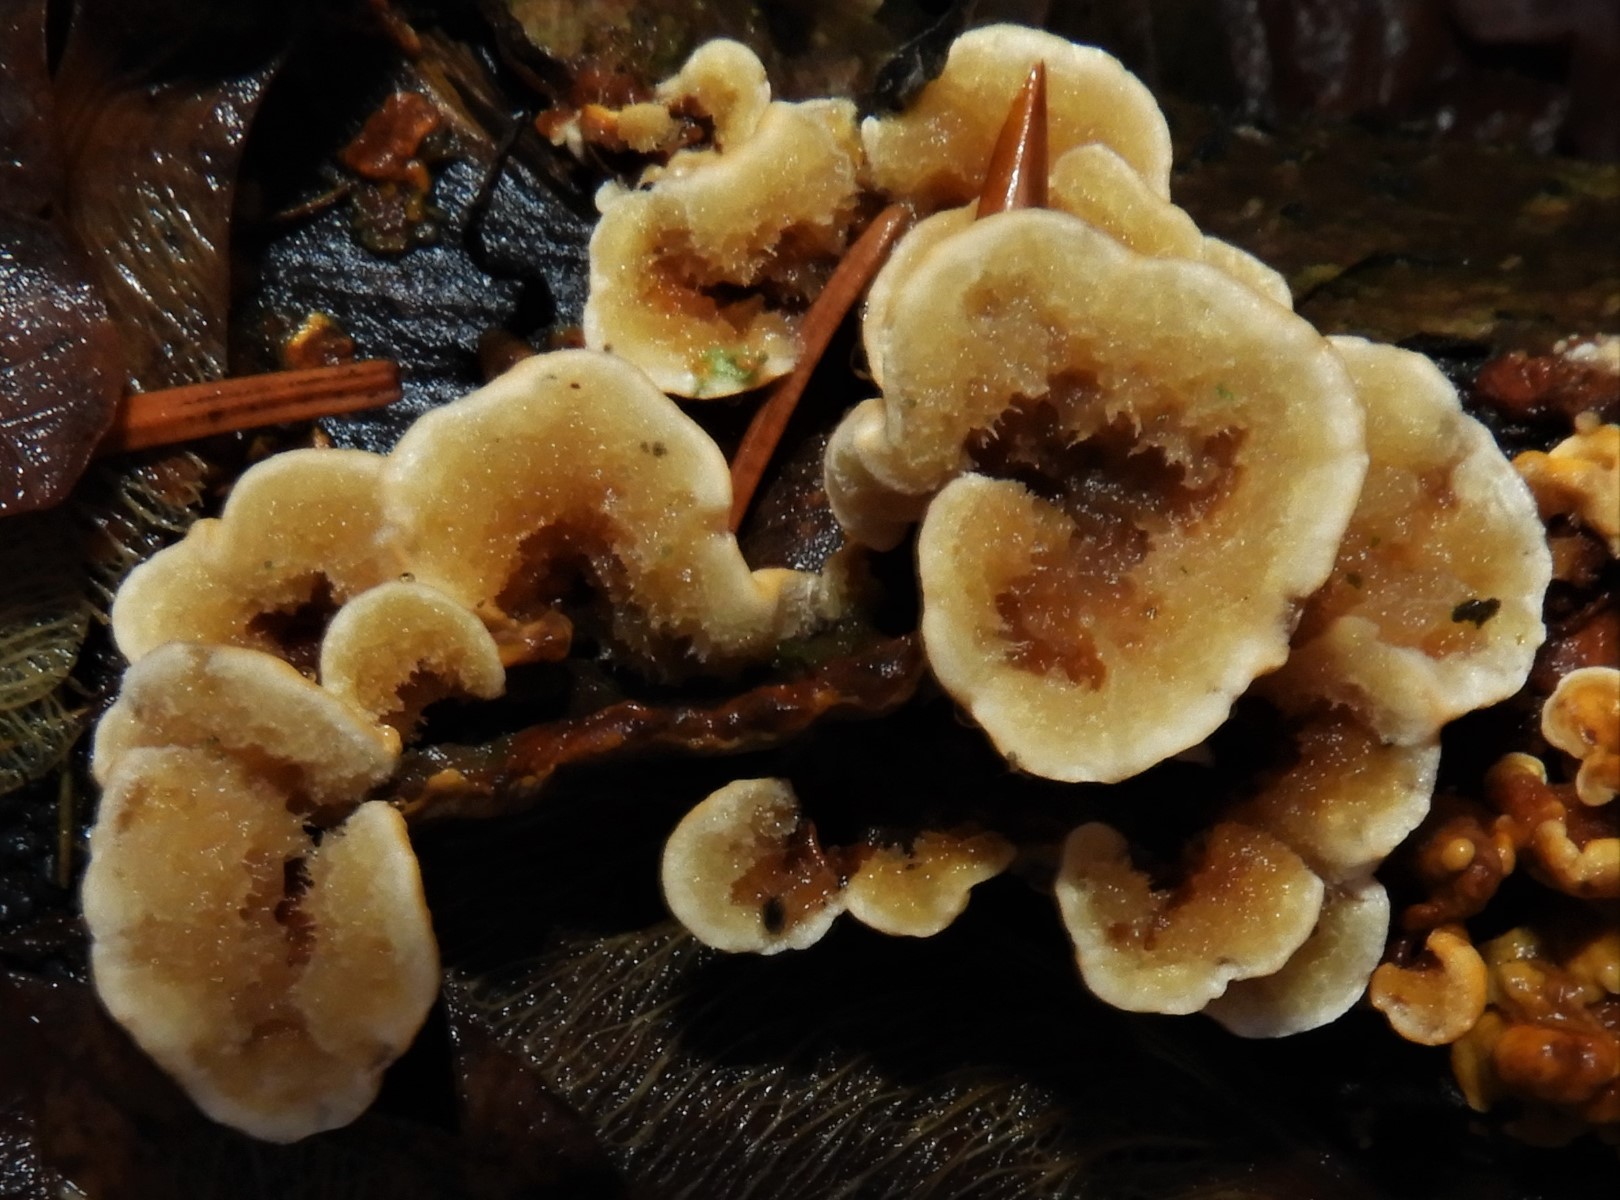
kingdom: Fungi
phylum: Basidiomycota
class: Agaricomycetes
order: Russulales
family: Stereaceae
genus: Stereum
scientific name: Stereum hirsutum
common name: håret lædersvamp
